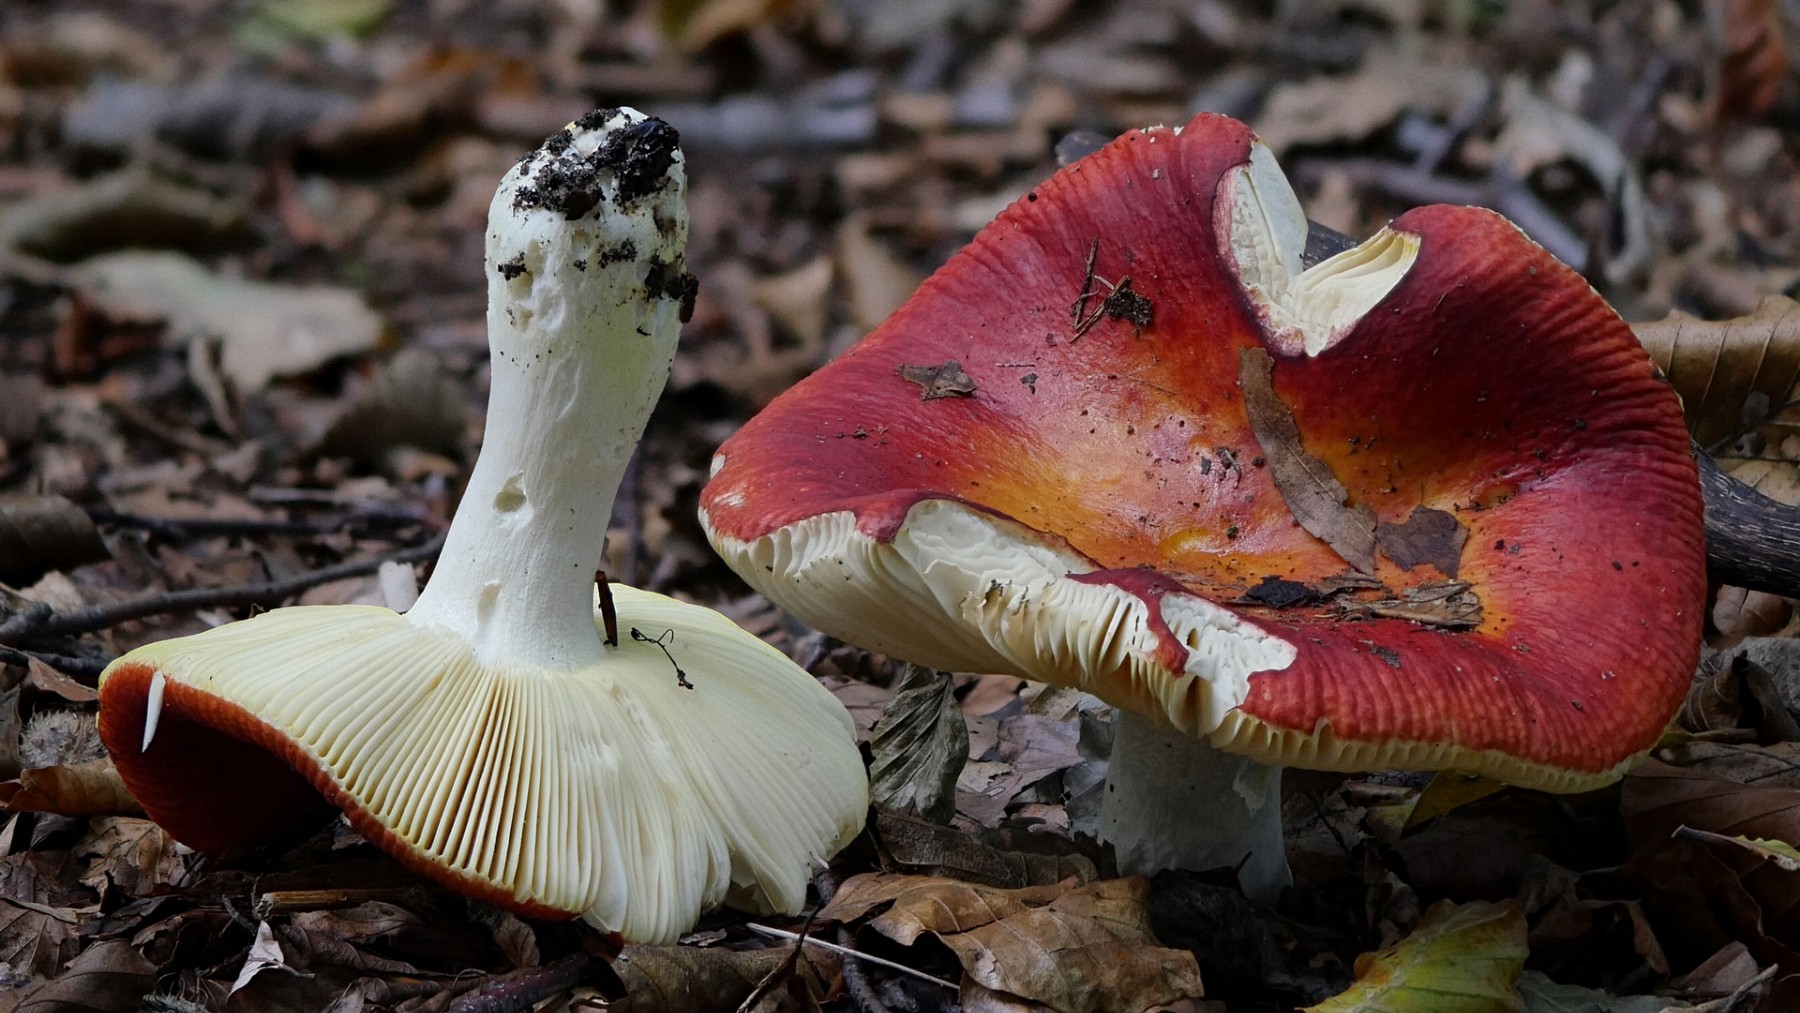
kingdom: Fungi
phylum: Basidiomycota
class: Agaricomycetes
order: Russulales
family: Russulaceae
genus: Russula
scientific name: Russula aurea
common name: gylden skørhat
